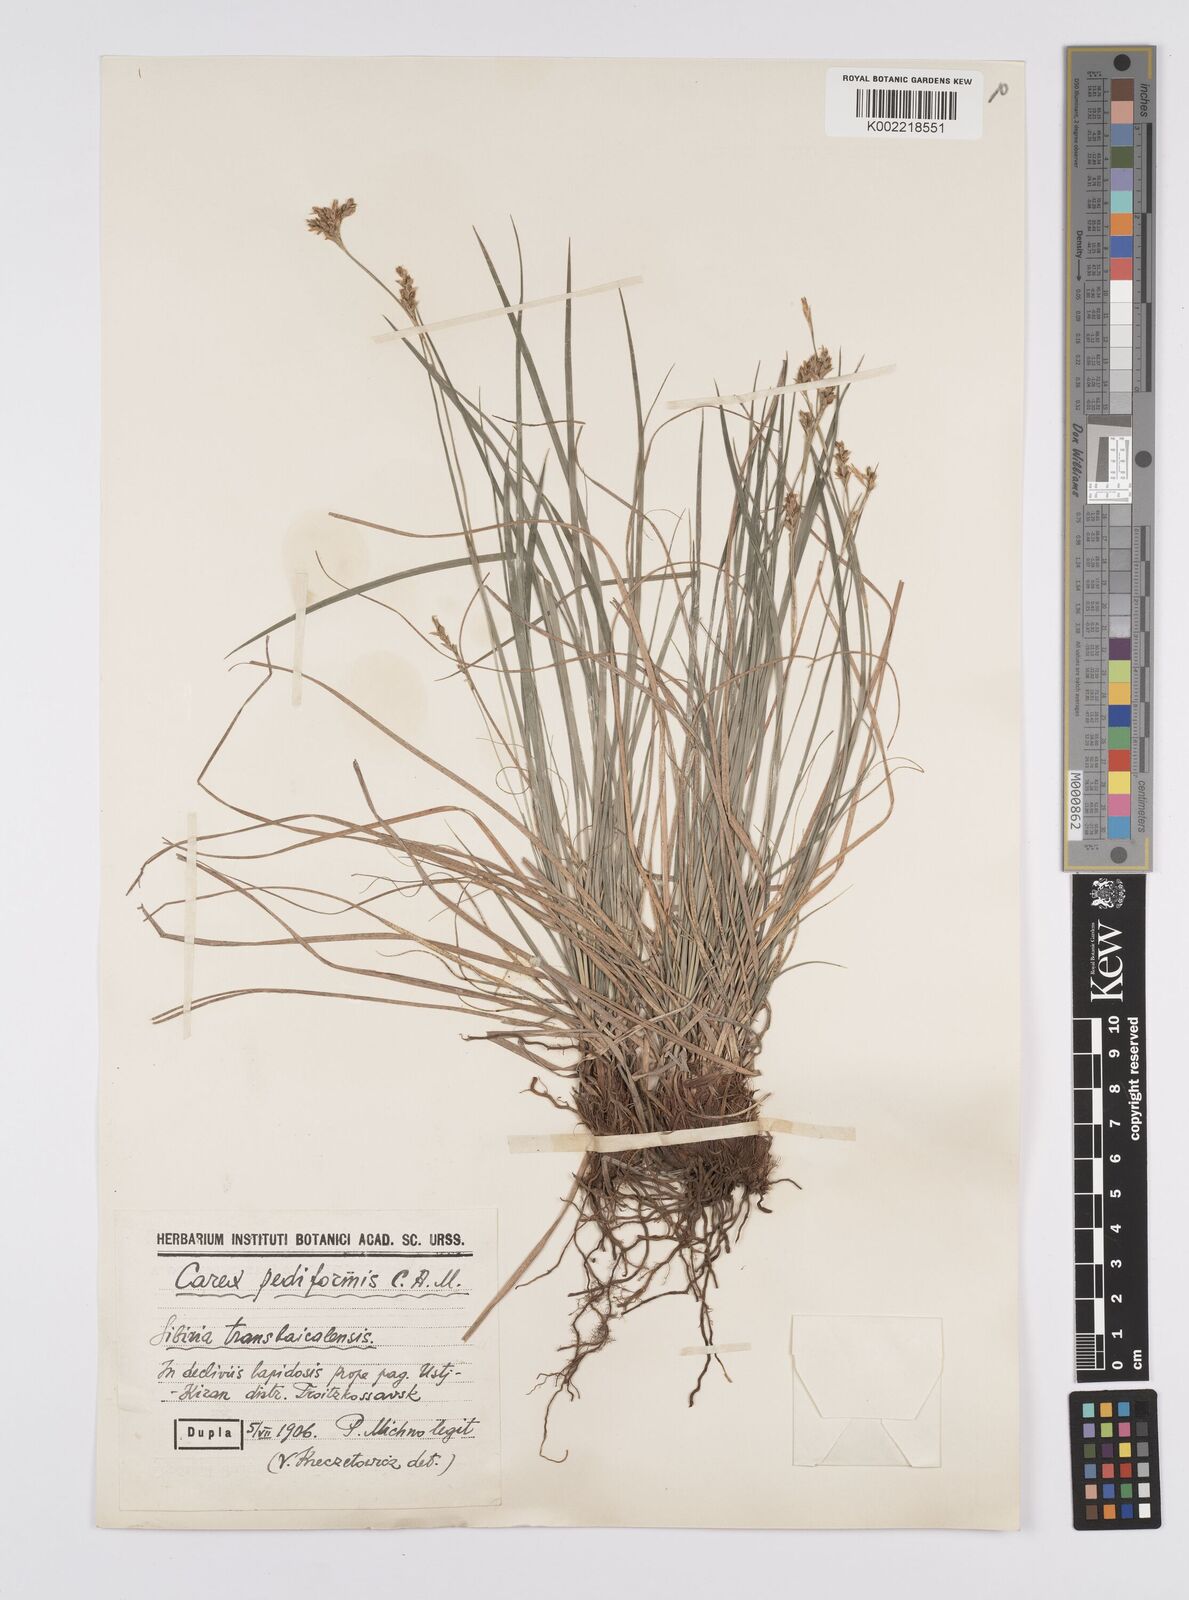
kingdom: Plantae
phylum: Tracheophyta
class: Liliopsida
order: Poales
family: Cyperaceae
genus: Carex
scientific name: Carex pediformis
